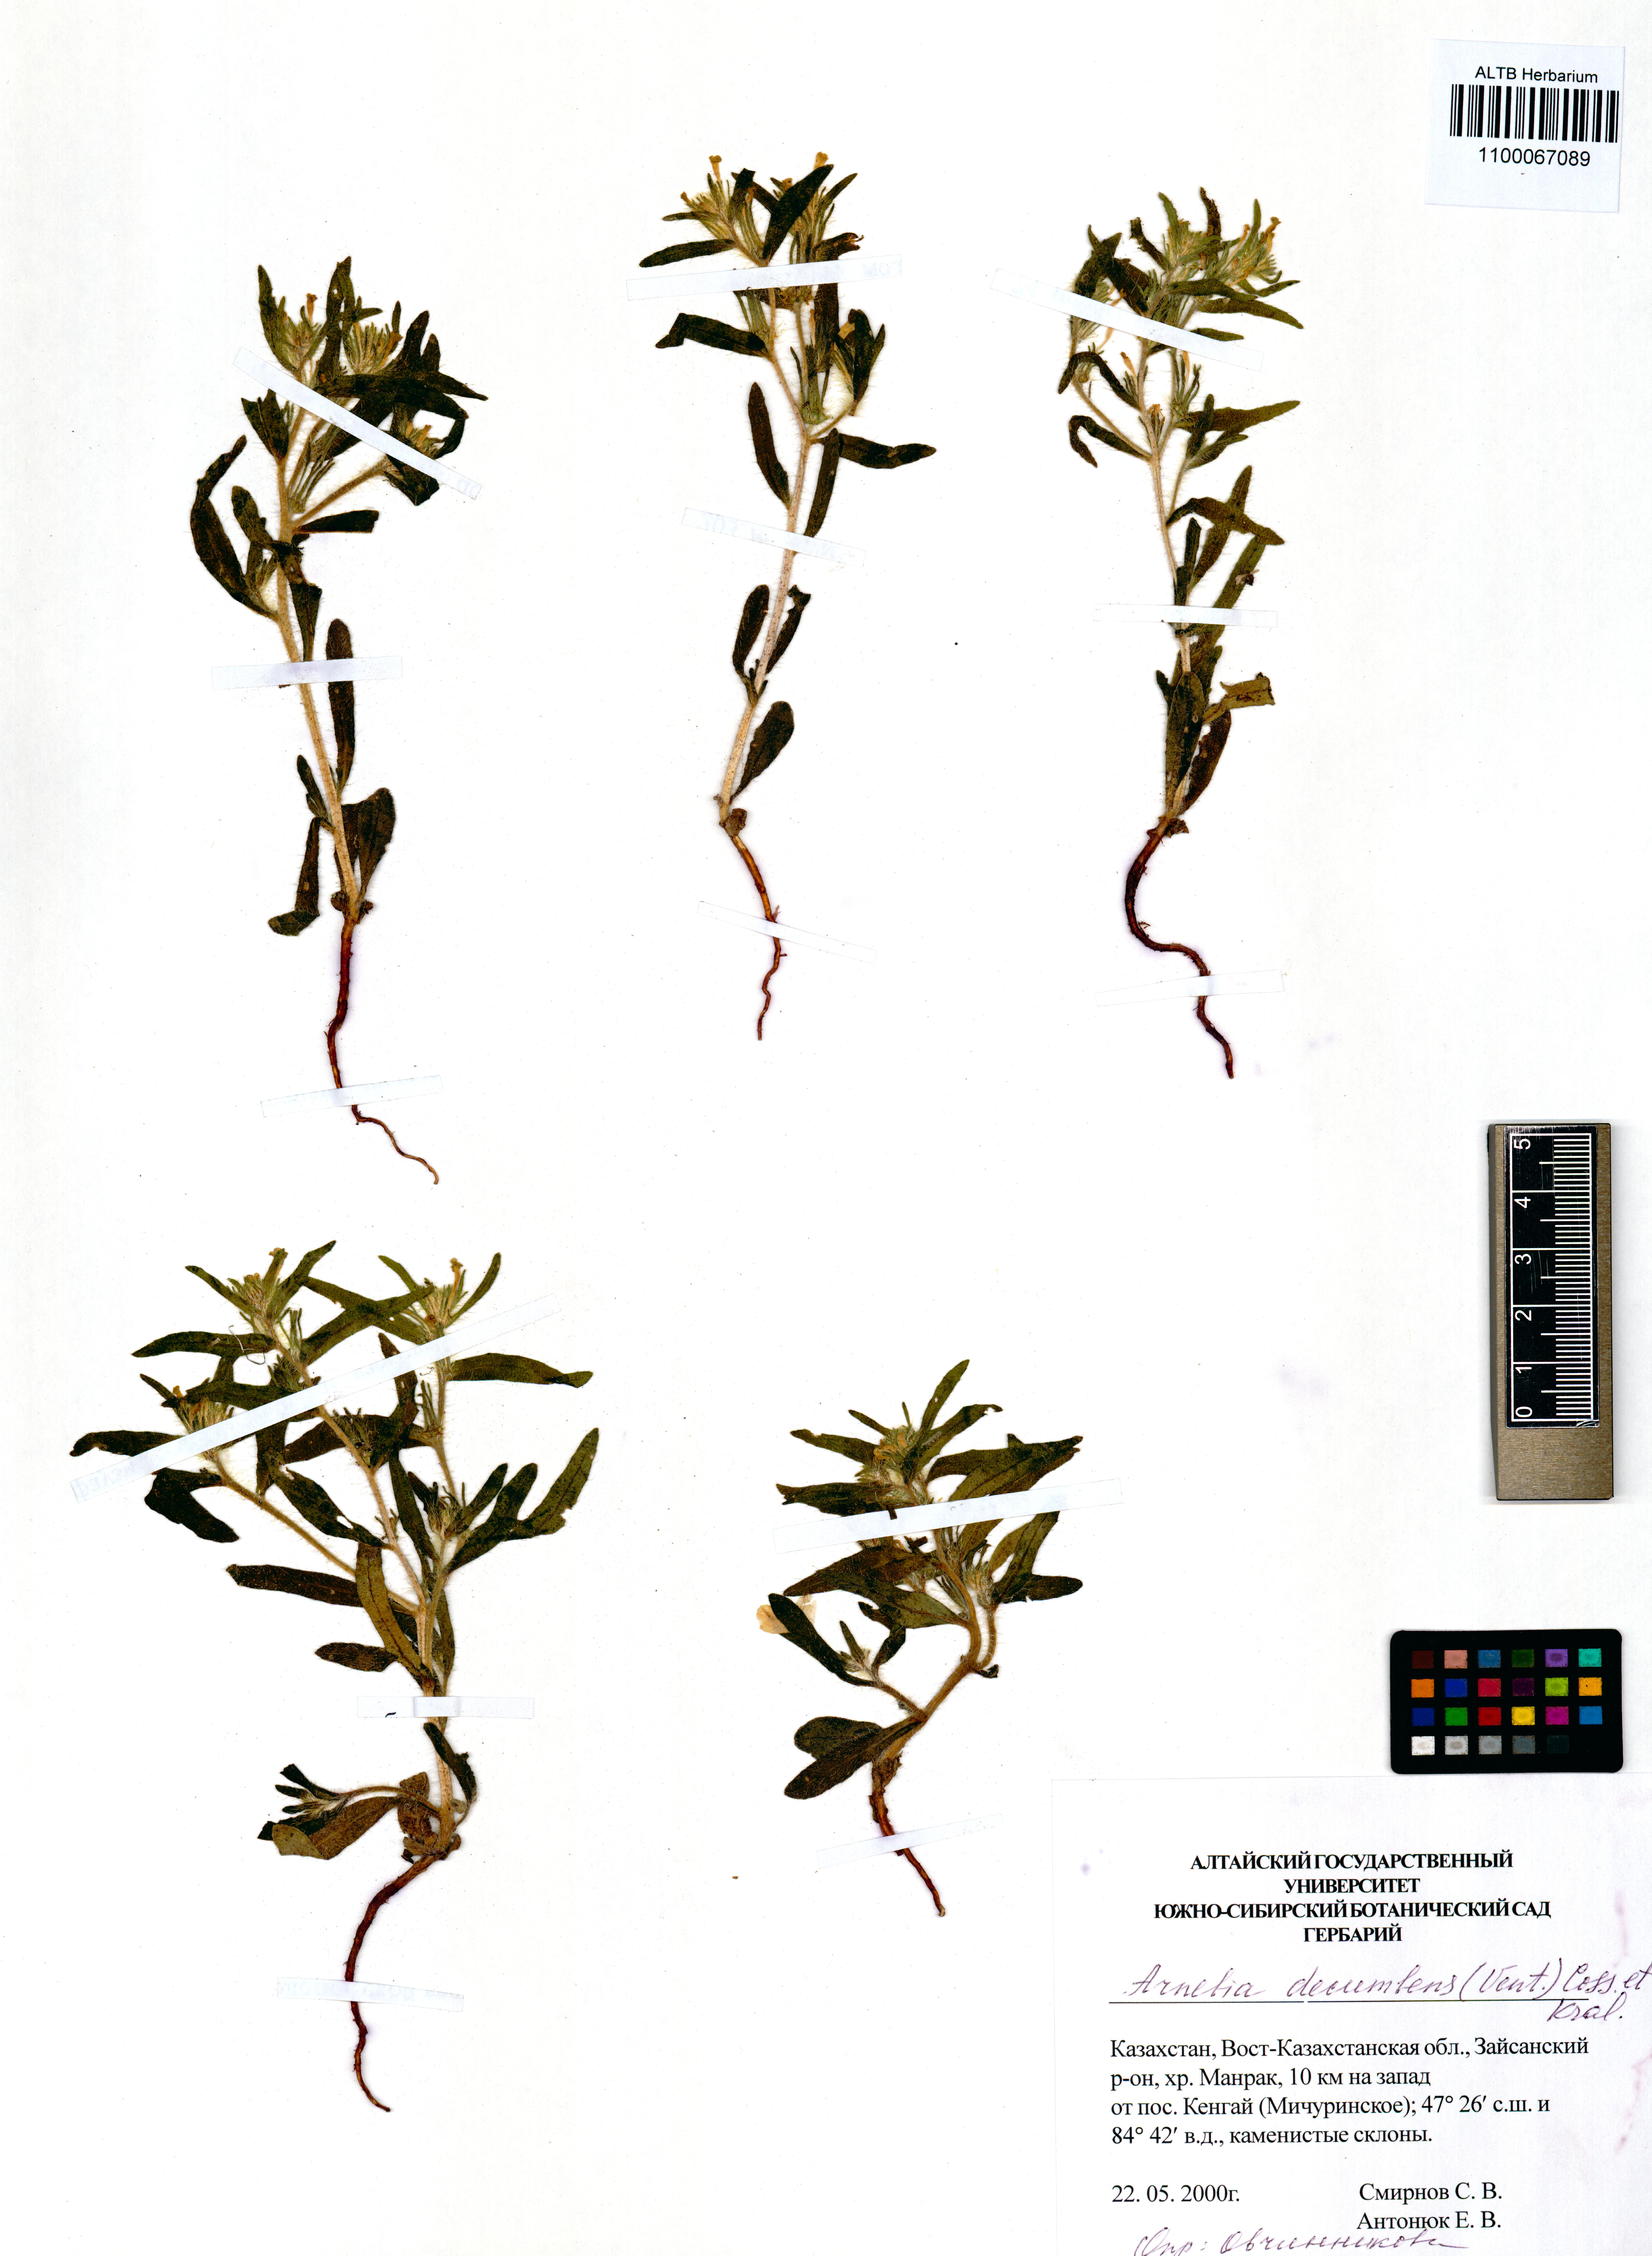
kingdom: Plantae
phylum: Tracheophyta
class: Magnoliopsida
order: Boraginales
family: Boraginaceae
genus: Arnebia
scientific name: Arnebia decumbens
